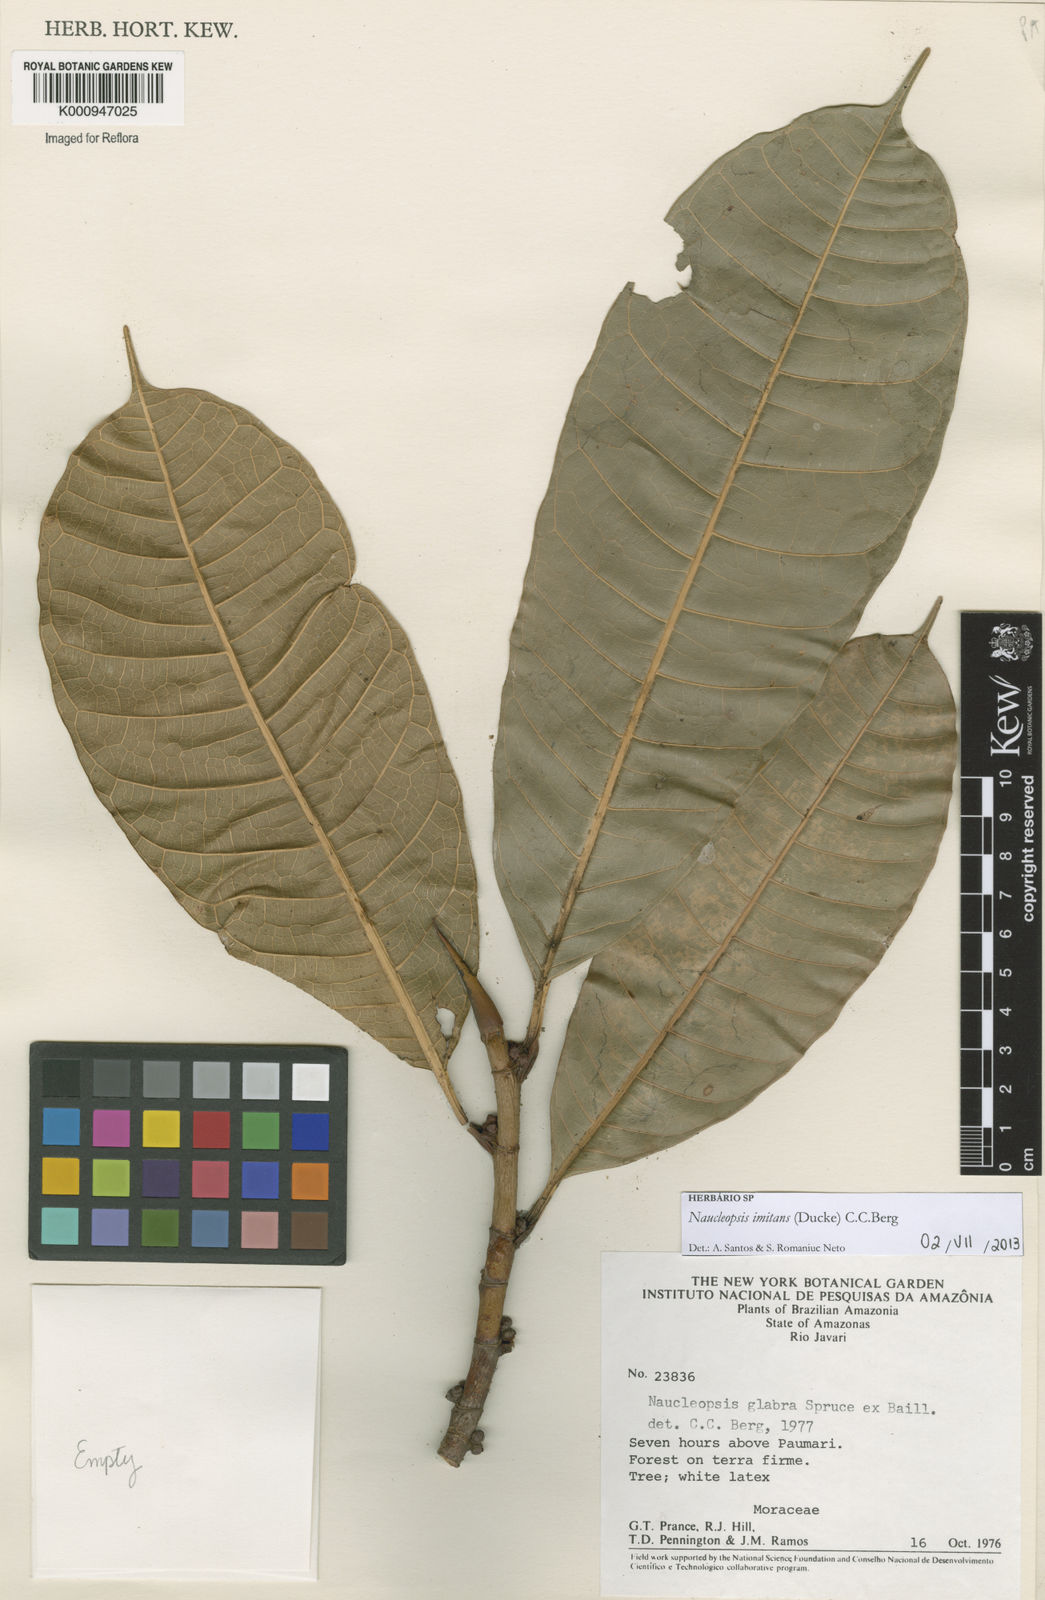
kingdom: Plantae
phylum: Tracheophyta
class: Magnoliopsida
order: Rosales
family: Moraceae
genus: Naucleopsis
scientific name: Naucleopsis imitans
